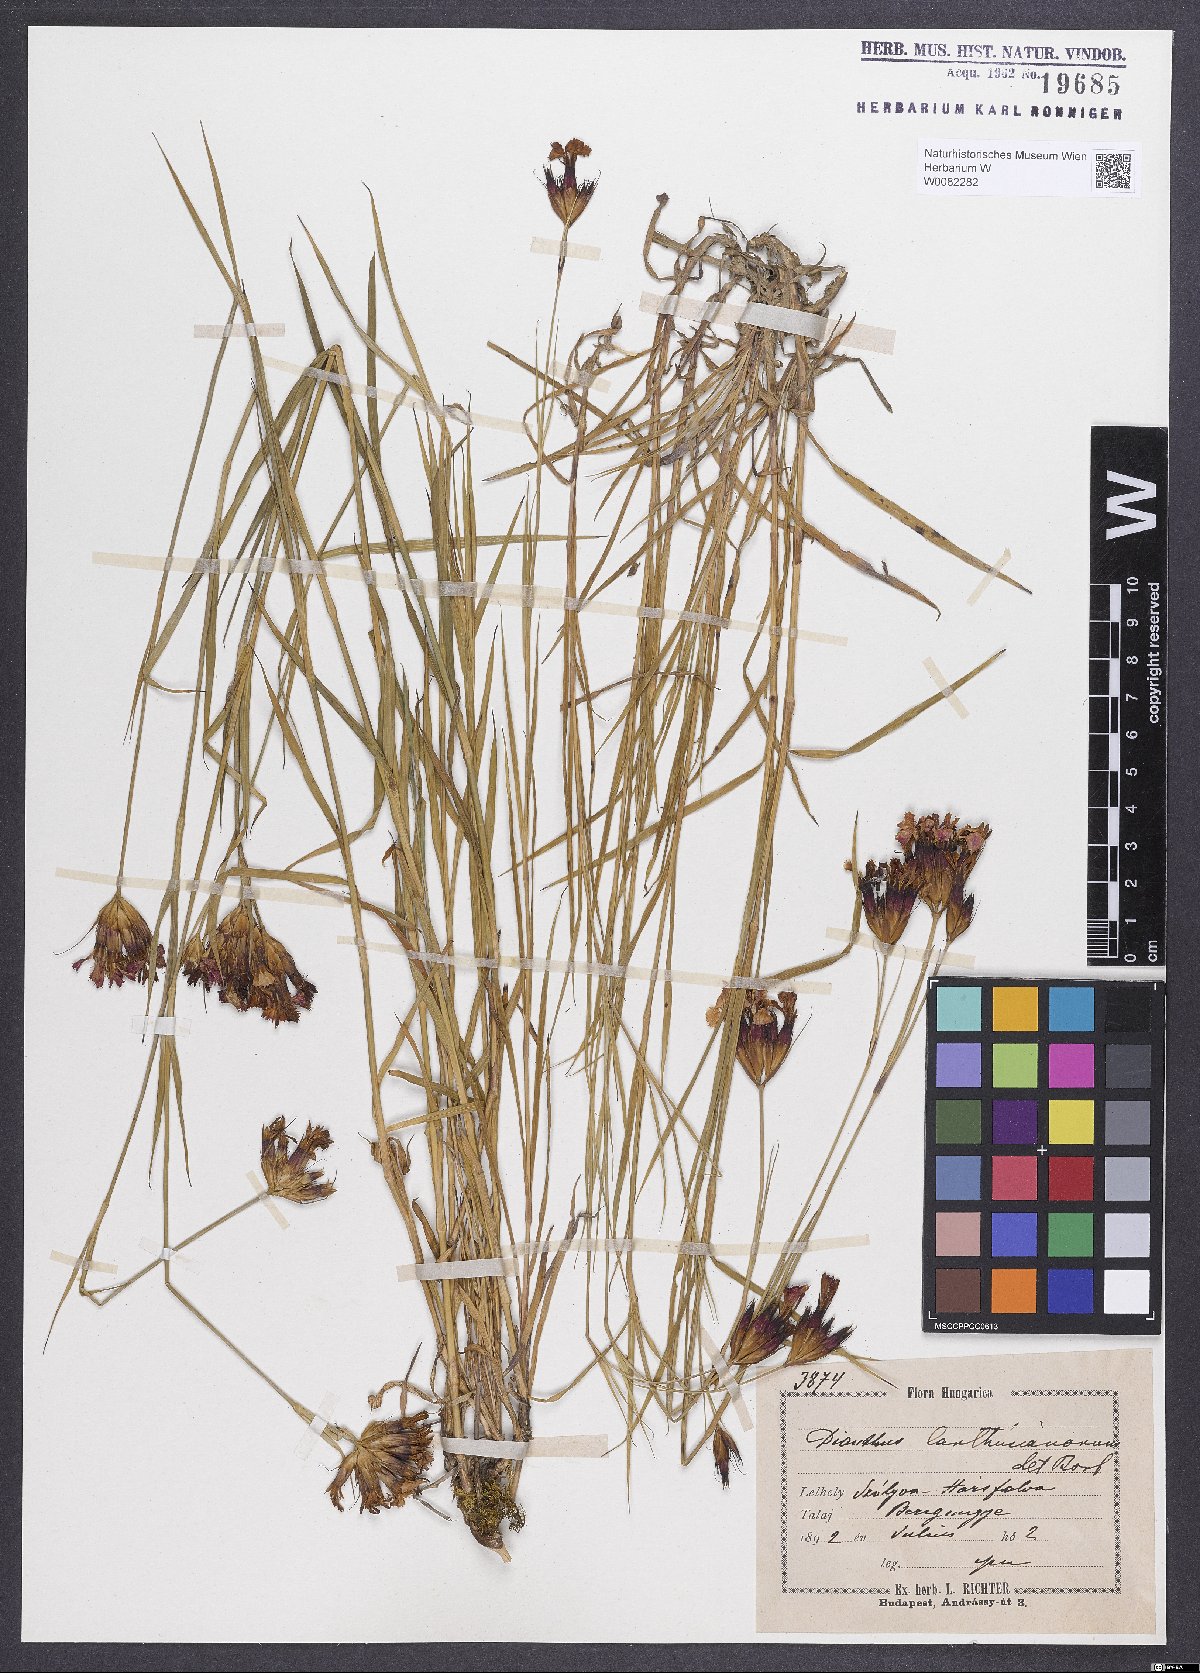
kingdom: Plantae
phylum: Tracheophyta
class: Magnoliopsida
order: Caryophyllales
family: Caryophyllaceae
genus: Dianthus
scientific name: Dianthus carthusianorum
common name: Carthusian pink
